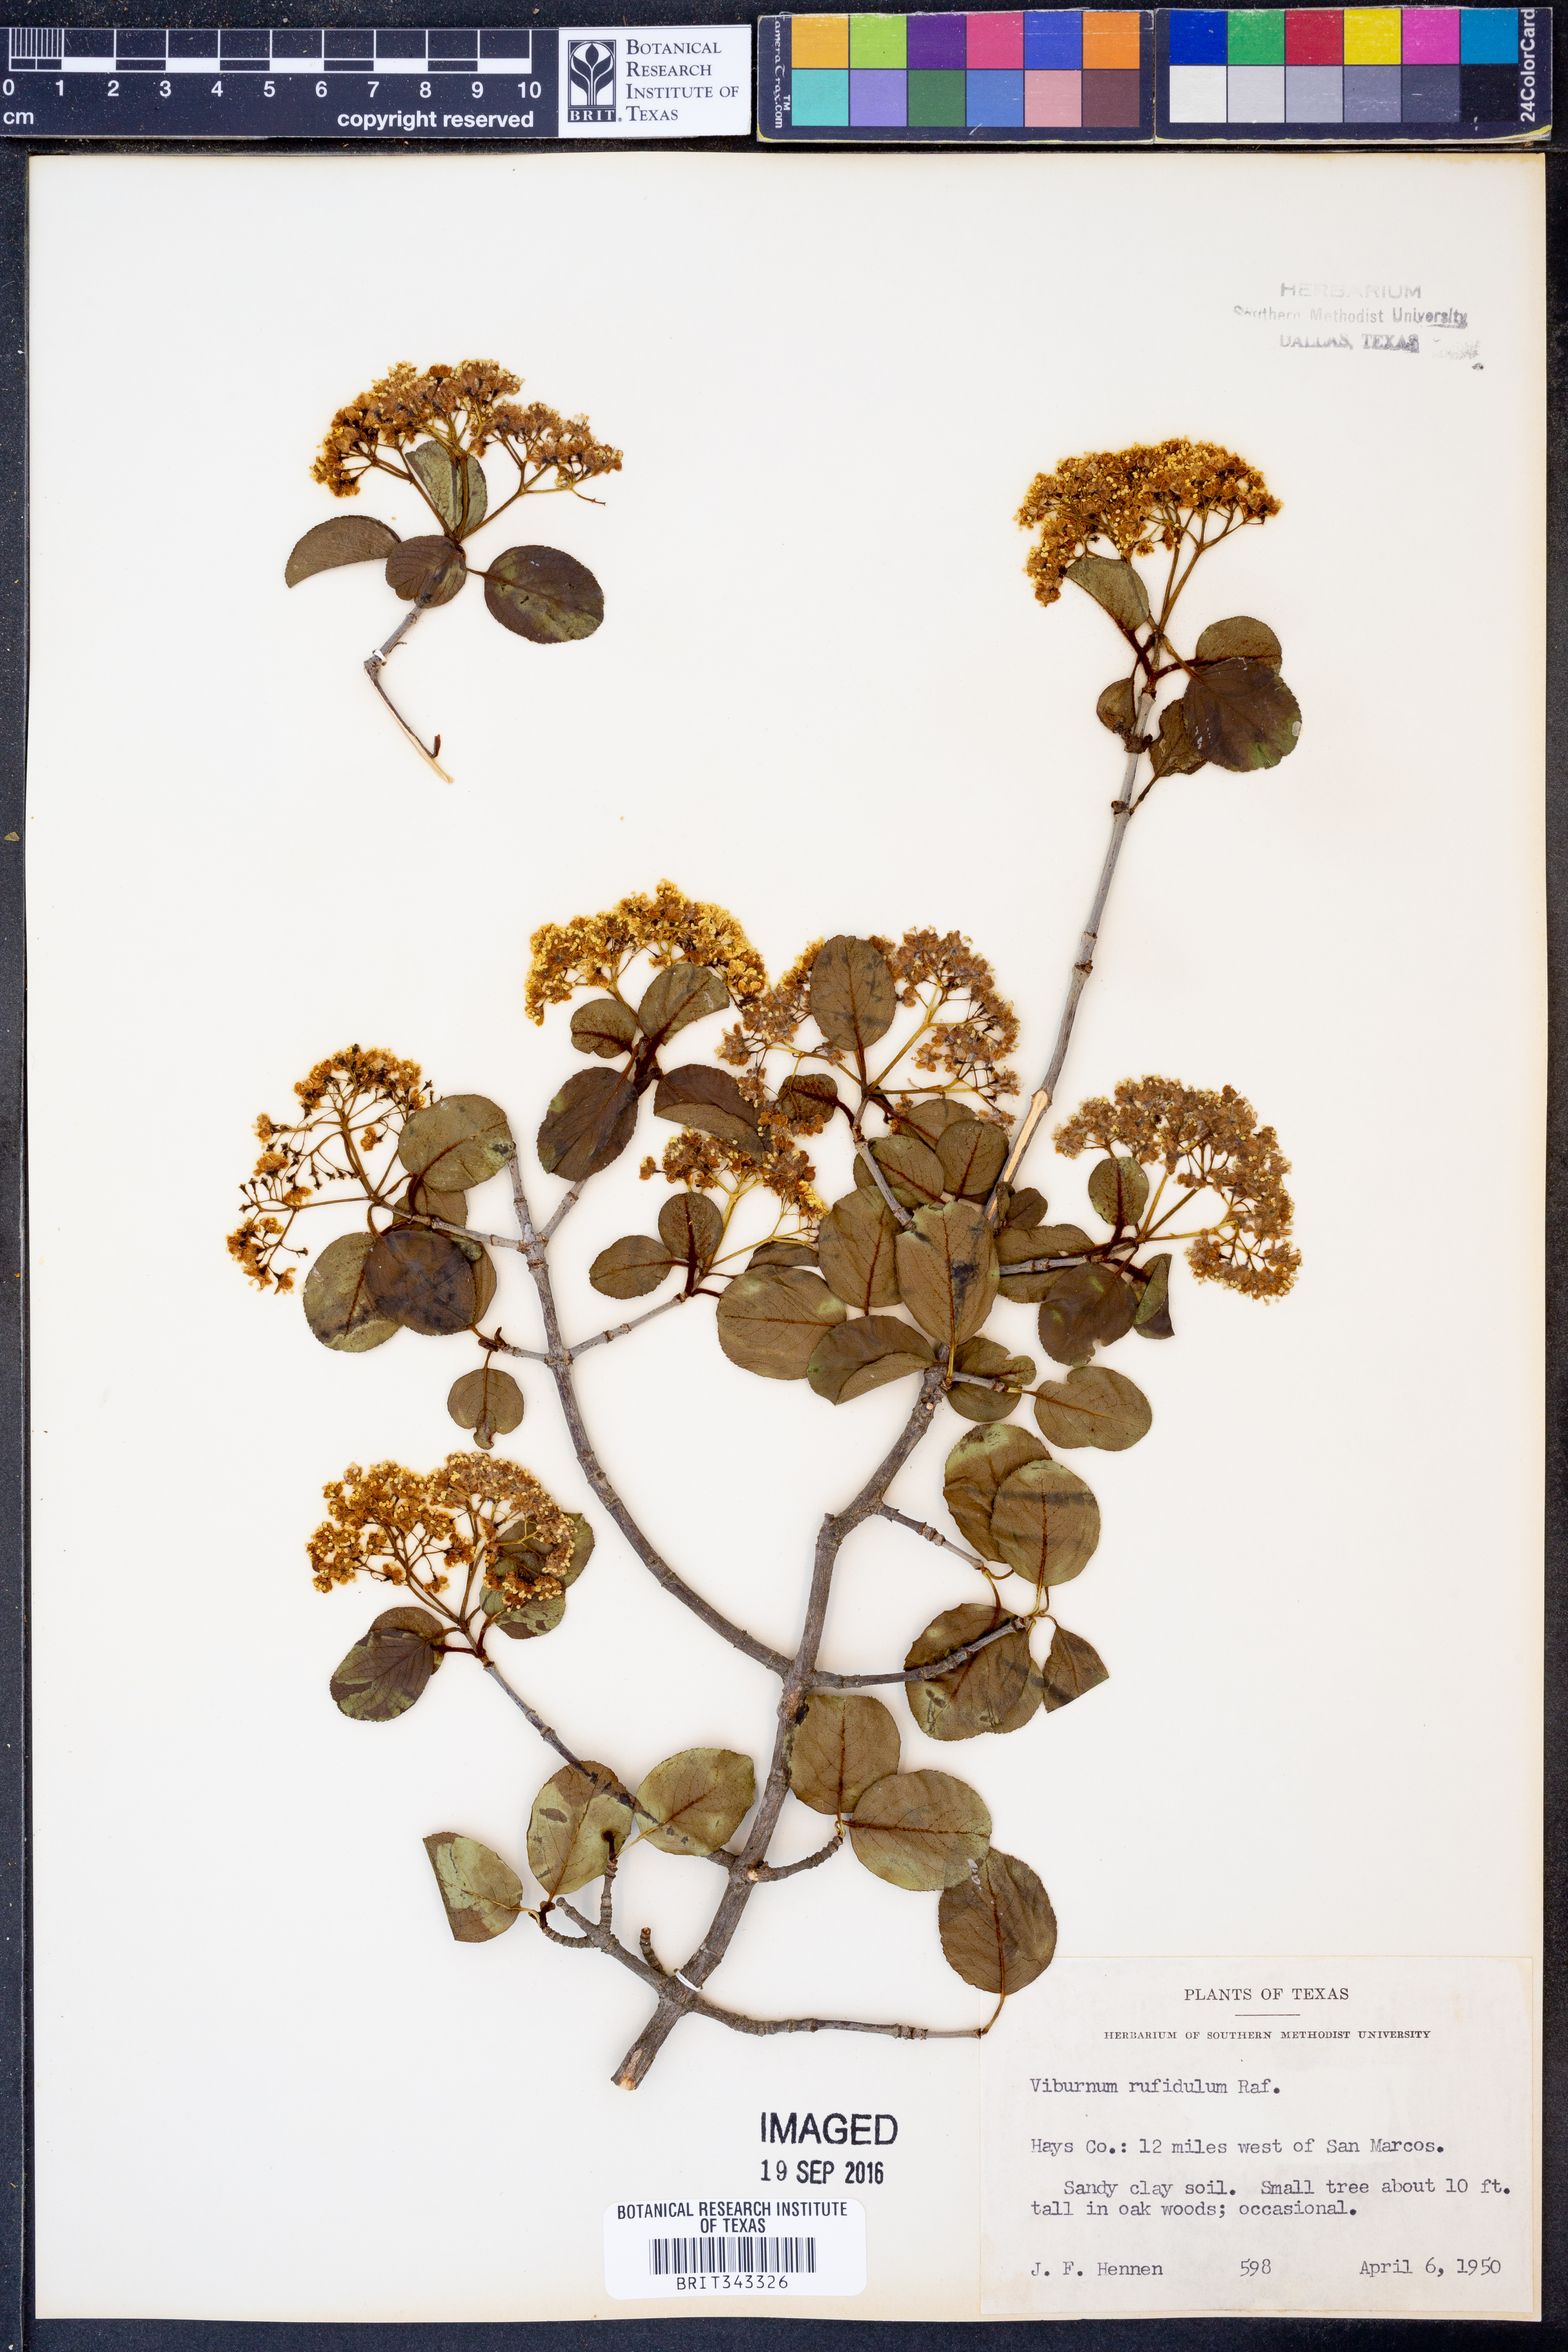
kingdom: Plantae
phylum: Tracheophyta
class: Magnoliopsida
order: Dipsacales
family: Viburnaceae
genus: Viburnum
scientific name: Viburnum rufidulum
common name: Blue haw
